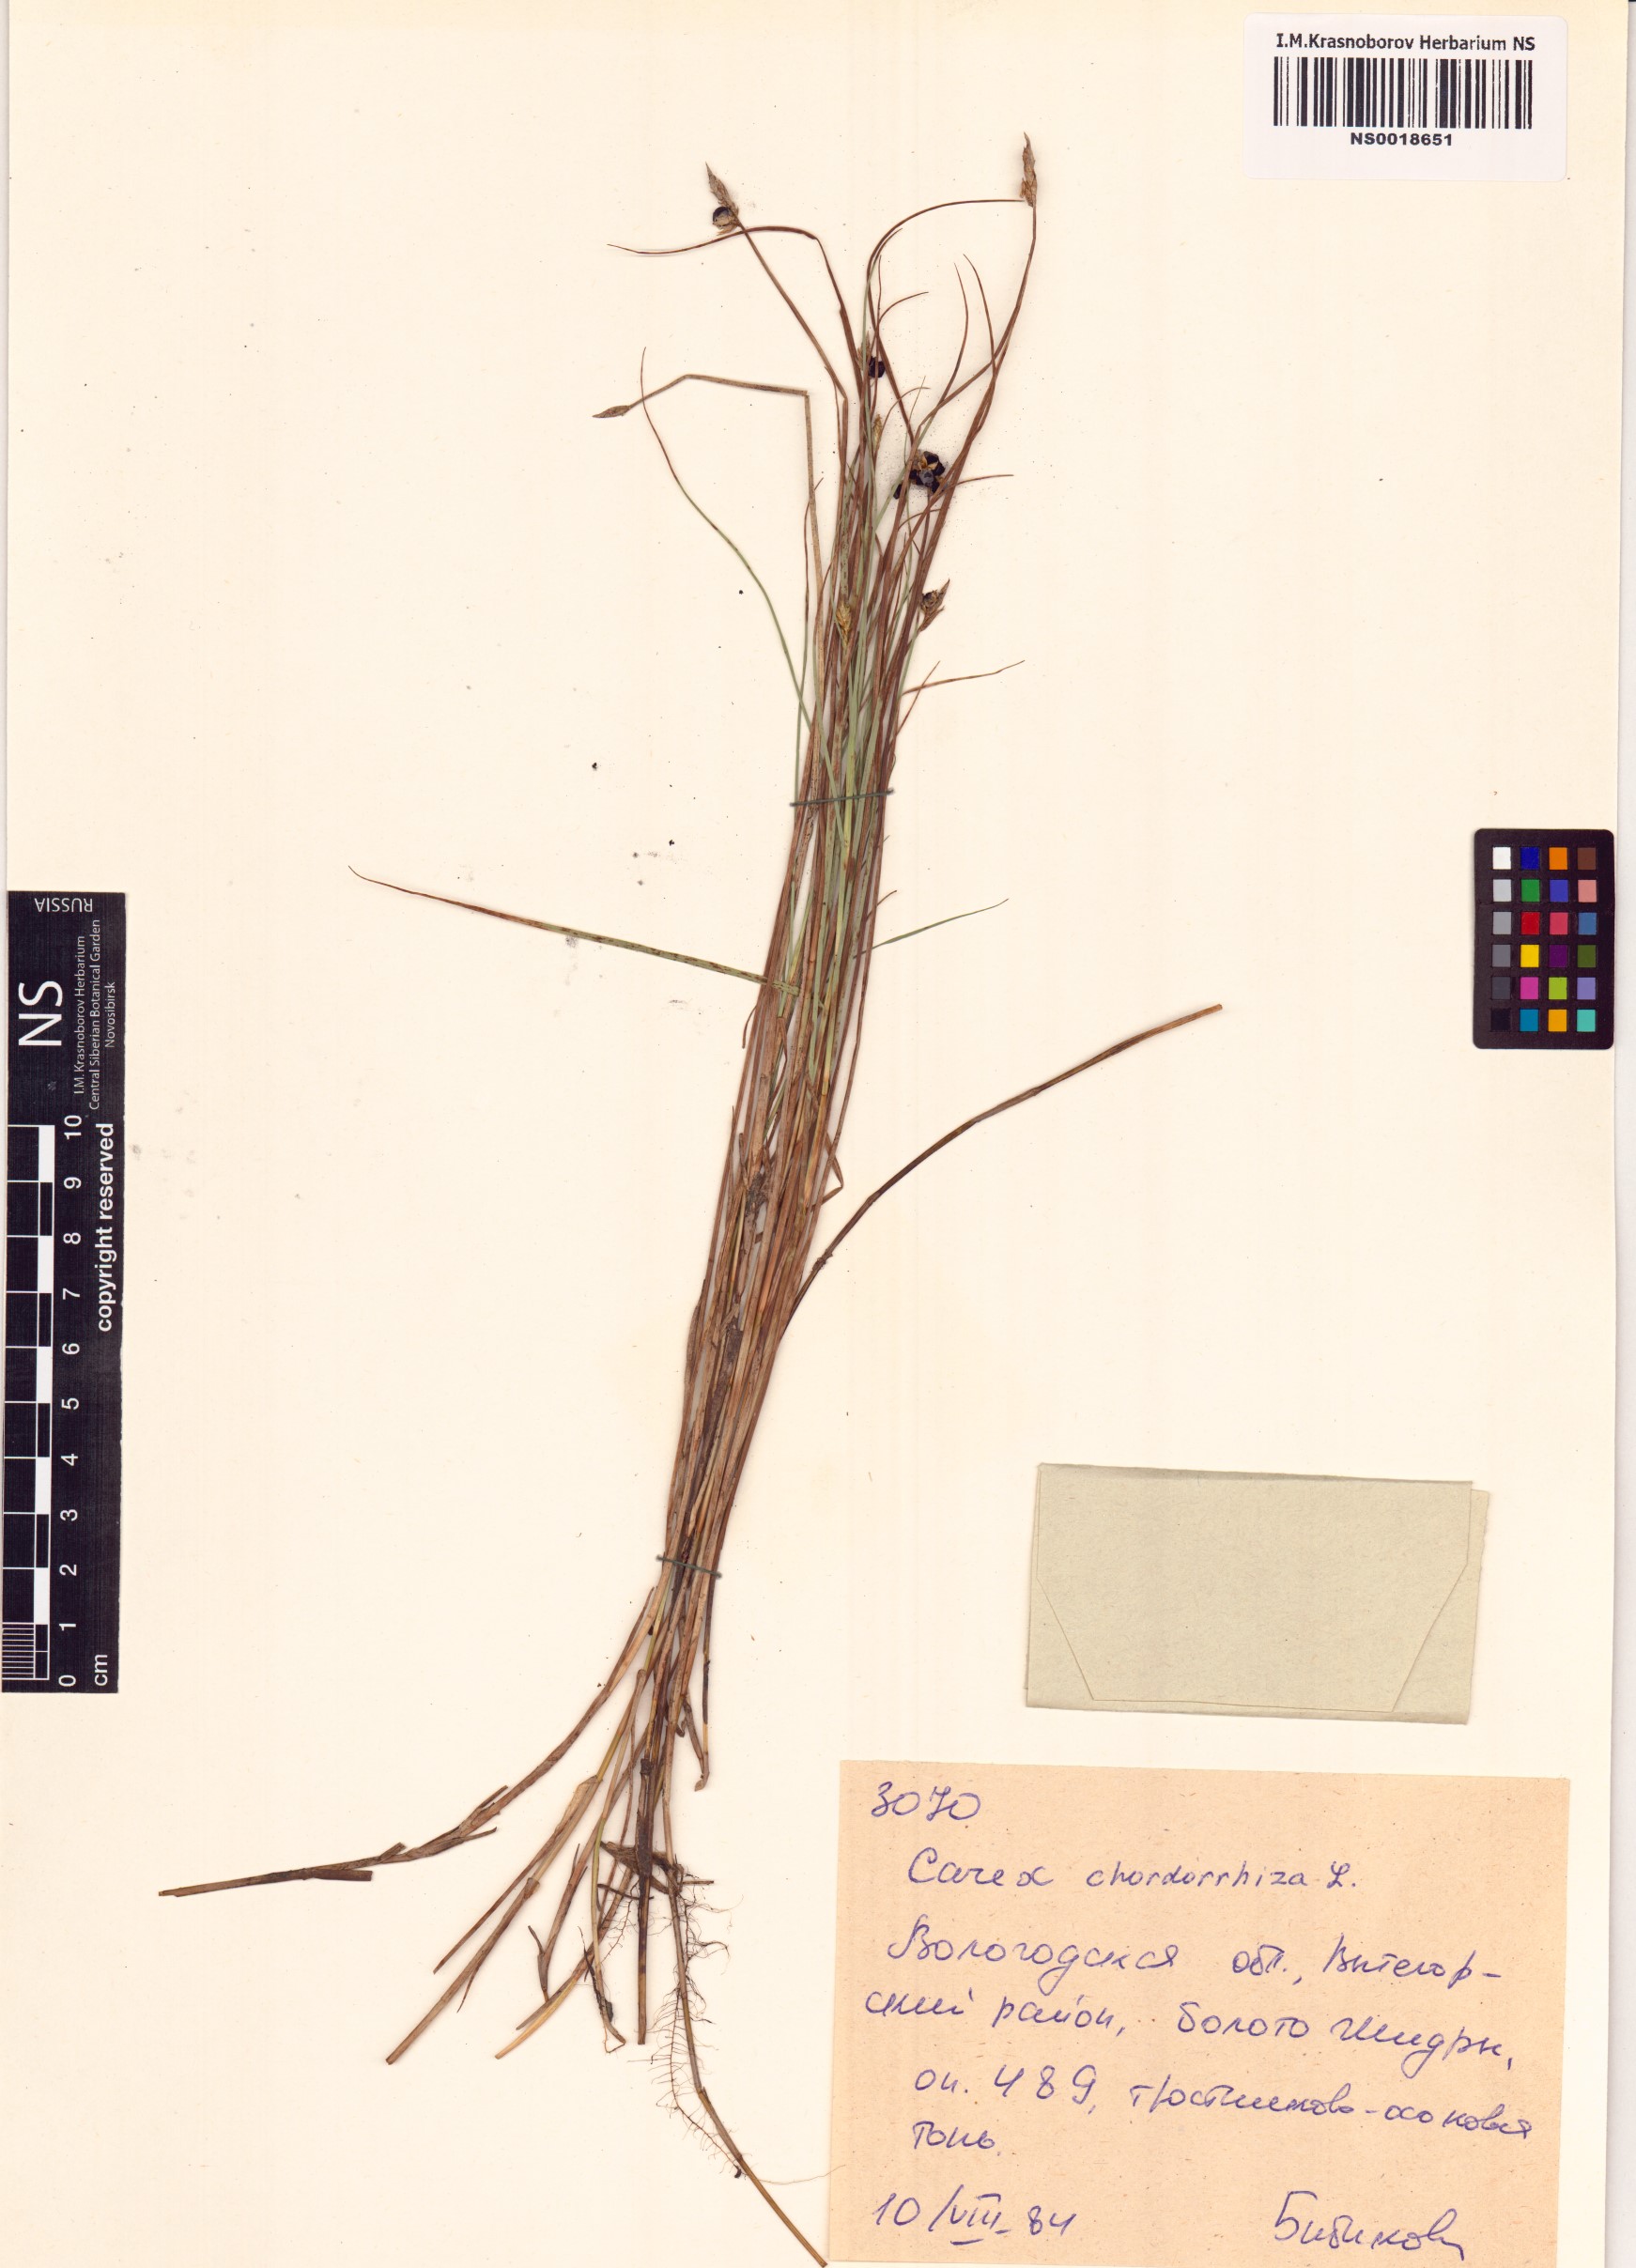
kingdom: Plantae
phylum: Tracheophyta
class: Liliopsida
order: Poales
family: Cyperaceae
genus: Carex
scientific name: Carex chordorrhiza
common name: String sedge
